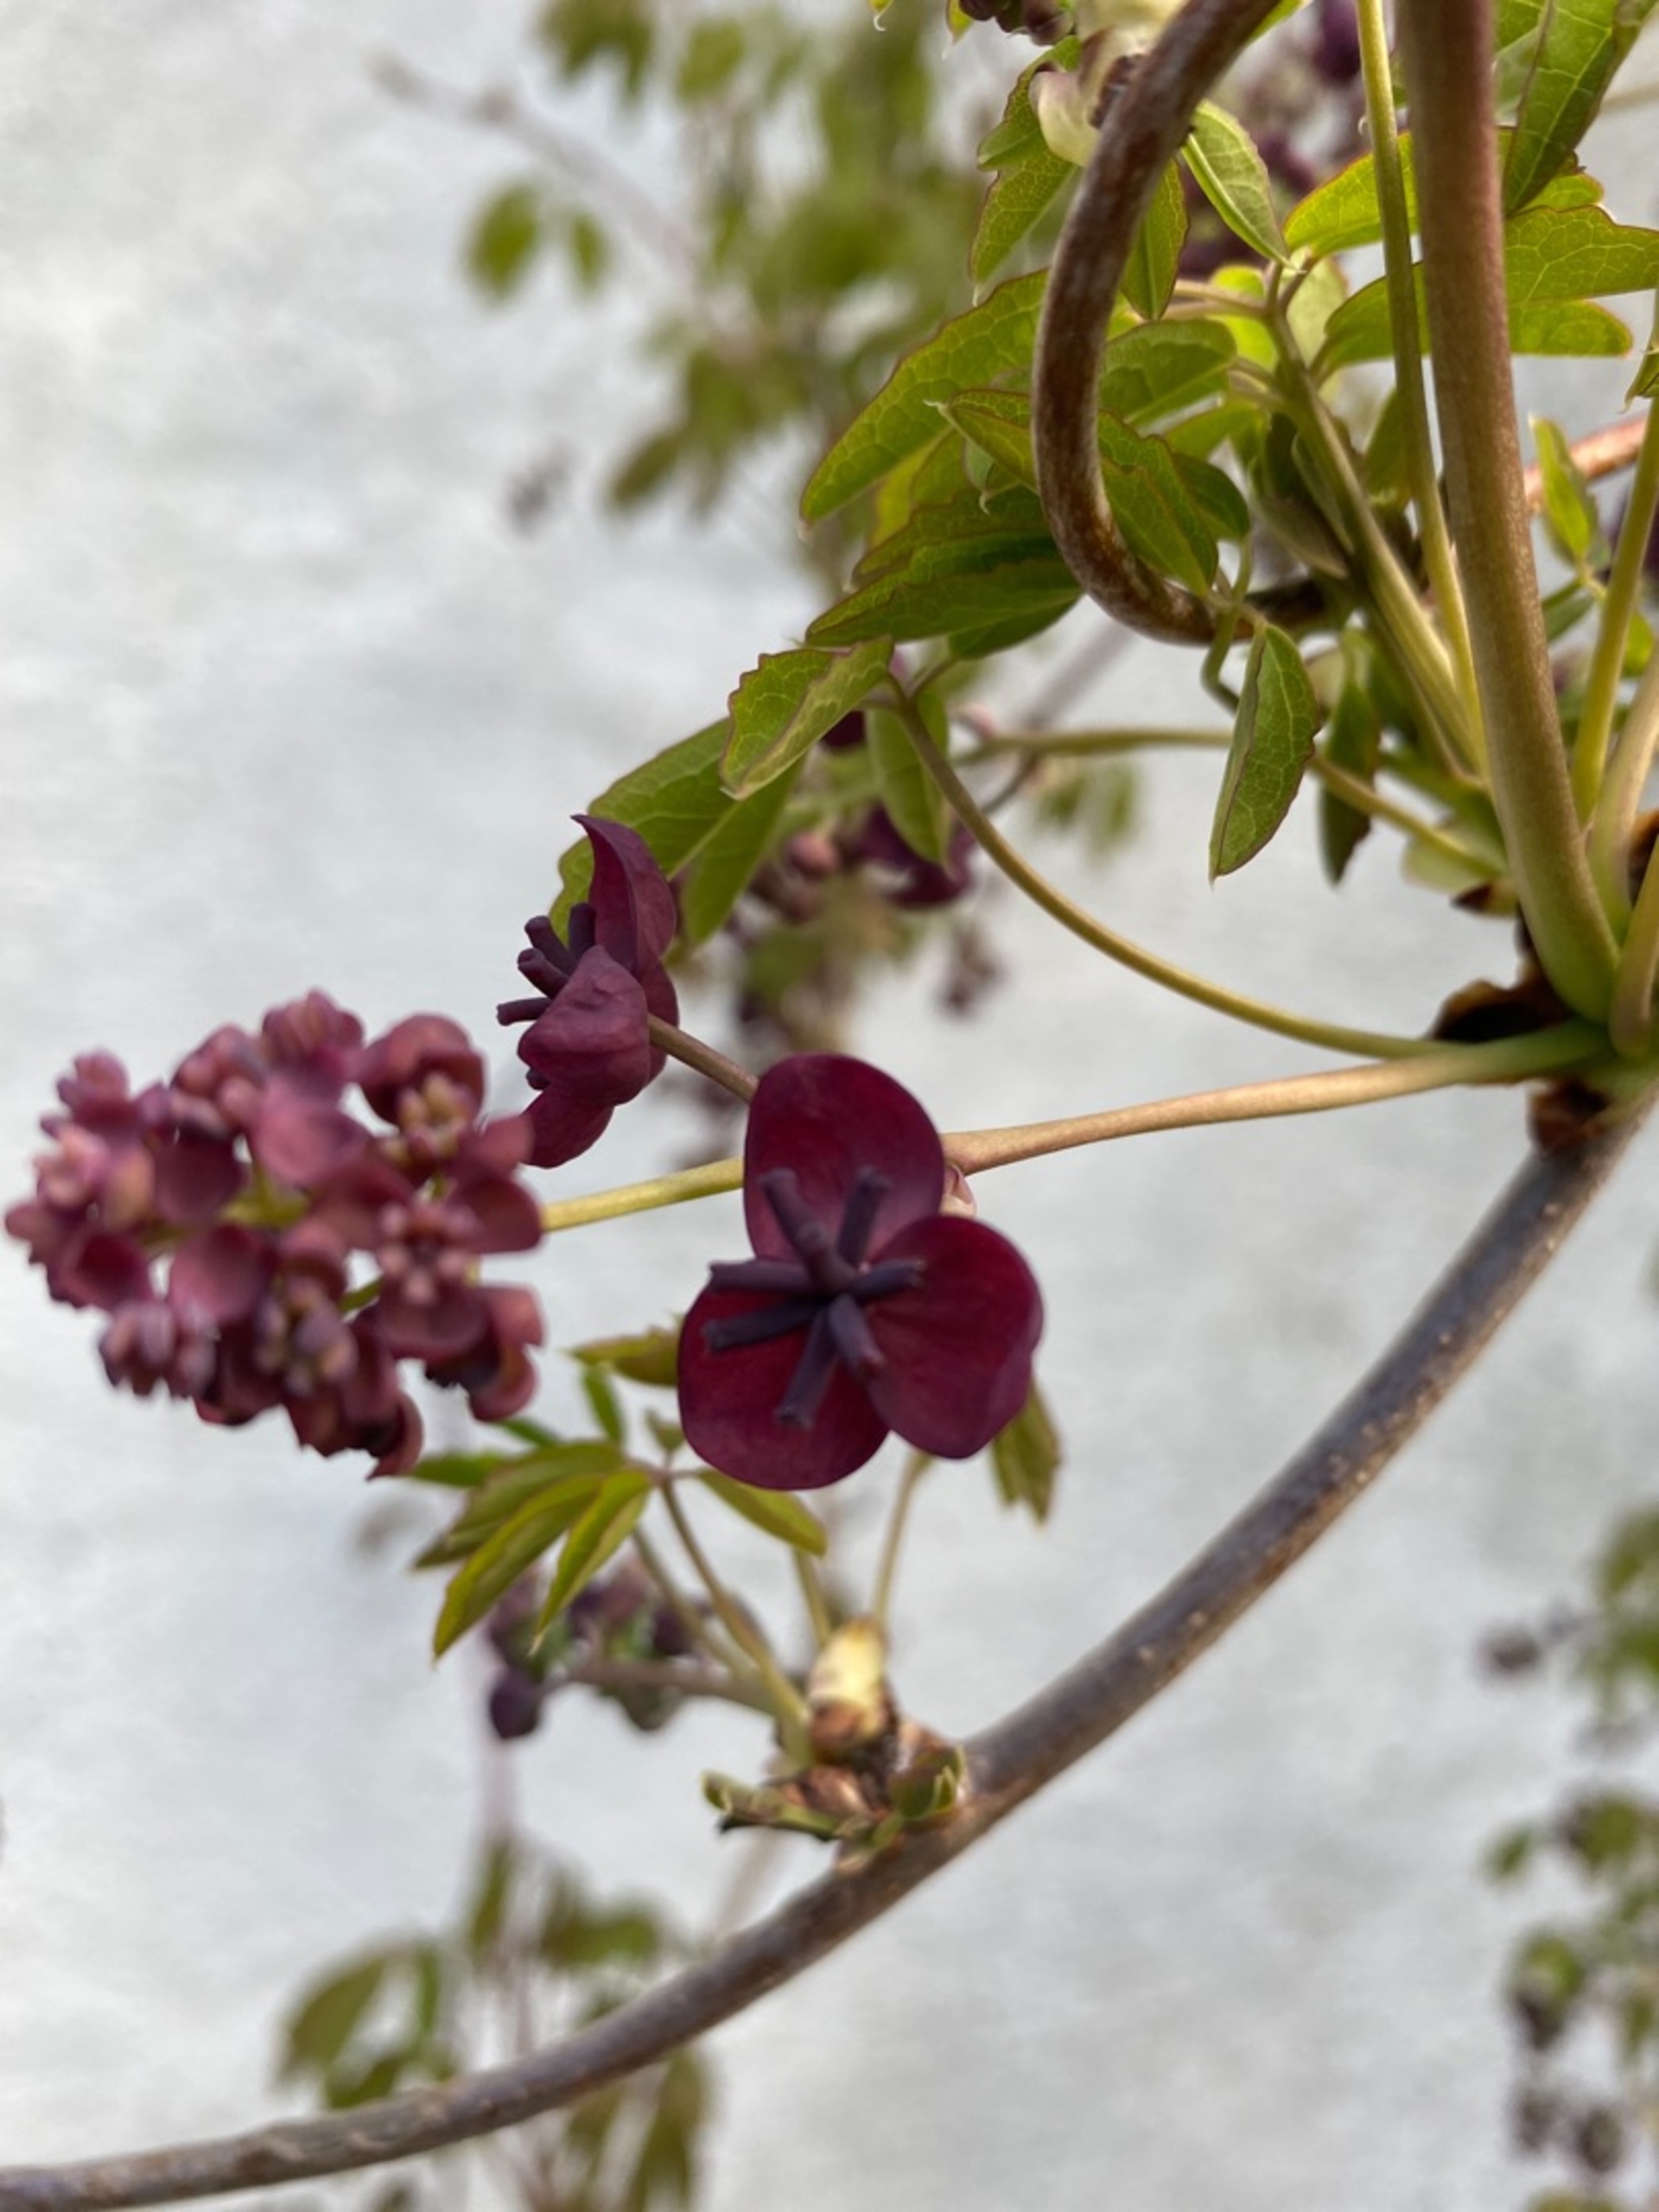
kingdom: Plantae
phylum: Tracheophyta
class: Magnoliopsida
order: Ranunculales
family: Lardizabalaceae
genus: Akebia
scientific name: Akebia quinata
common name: Femfingret akebia
